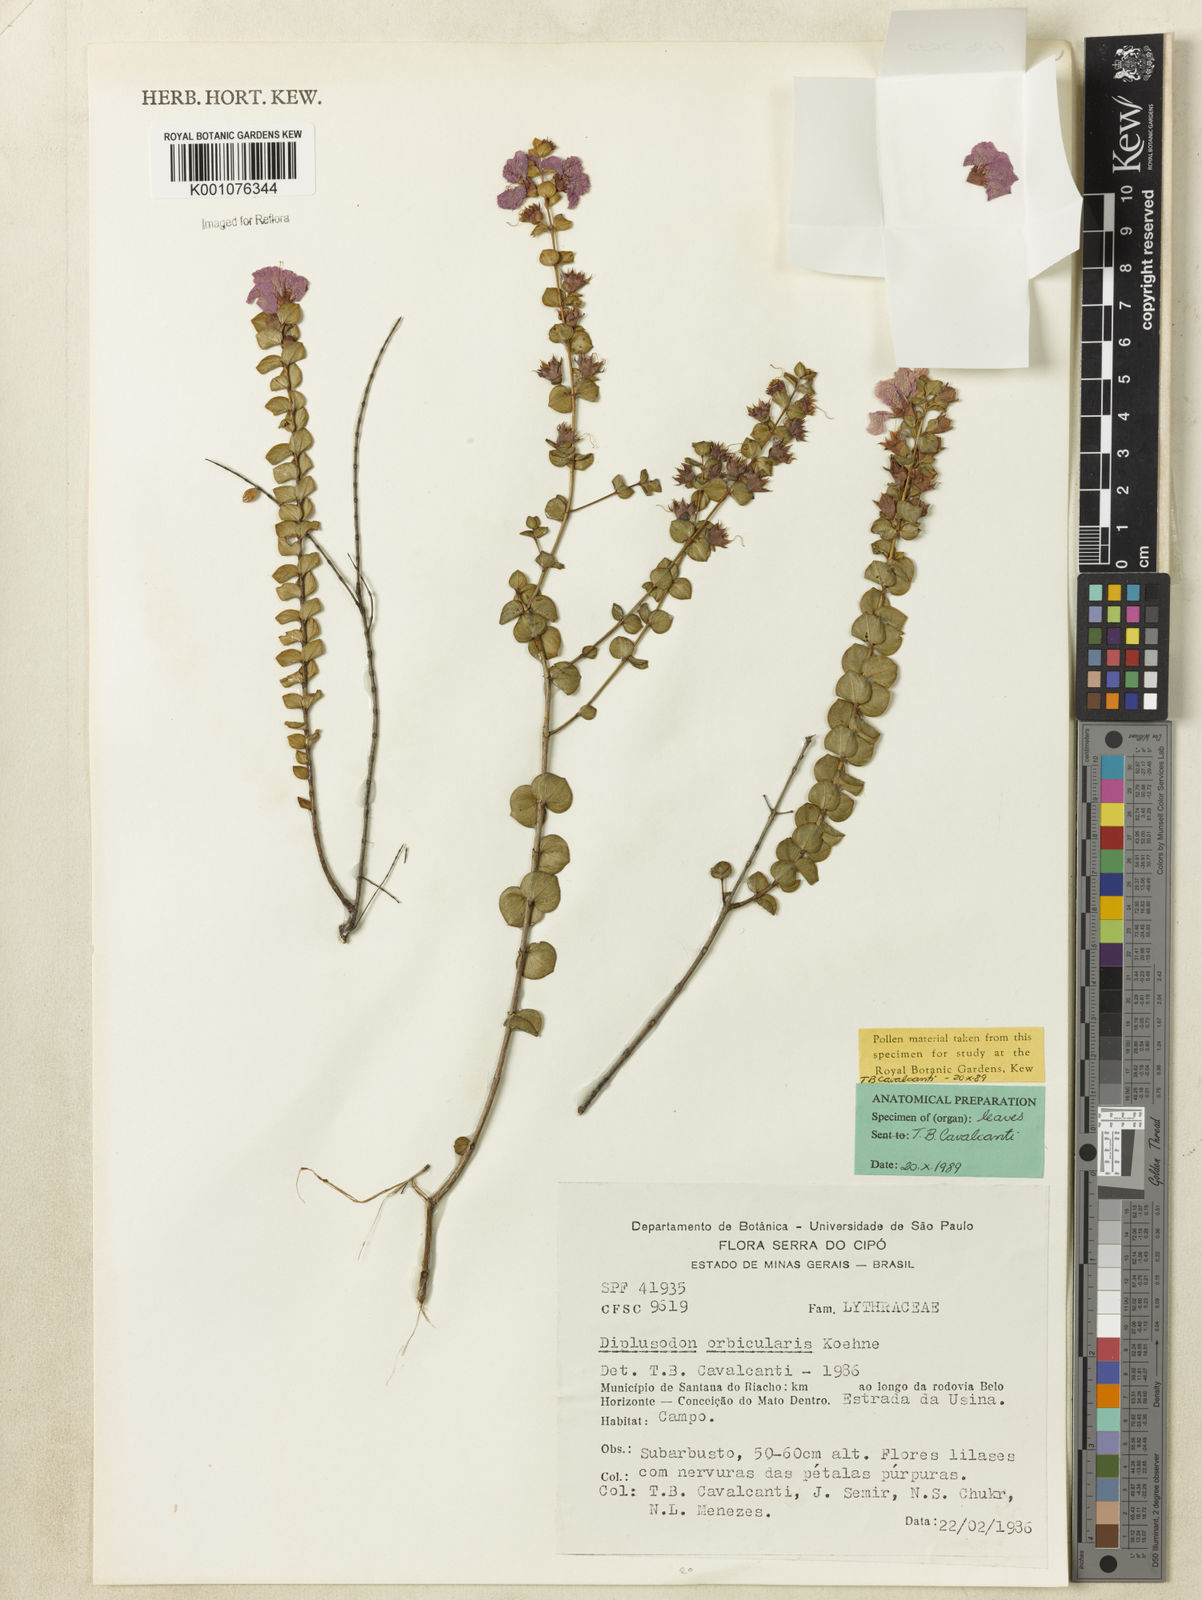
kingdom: Plantae
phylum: Tracheophyta
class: Magnoliopsida
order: Myrtales
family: Lythraceae
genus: Diplusodon
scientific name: Diplusodon orbicularis
